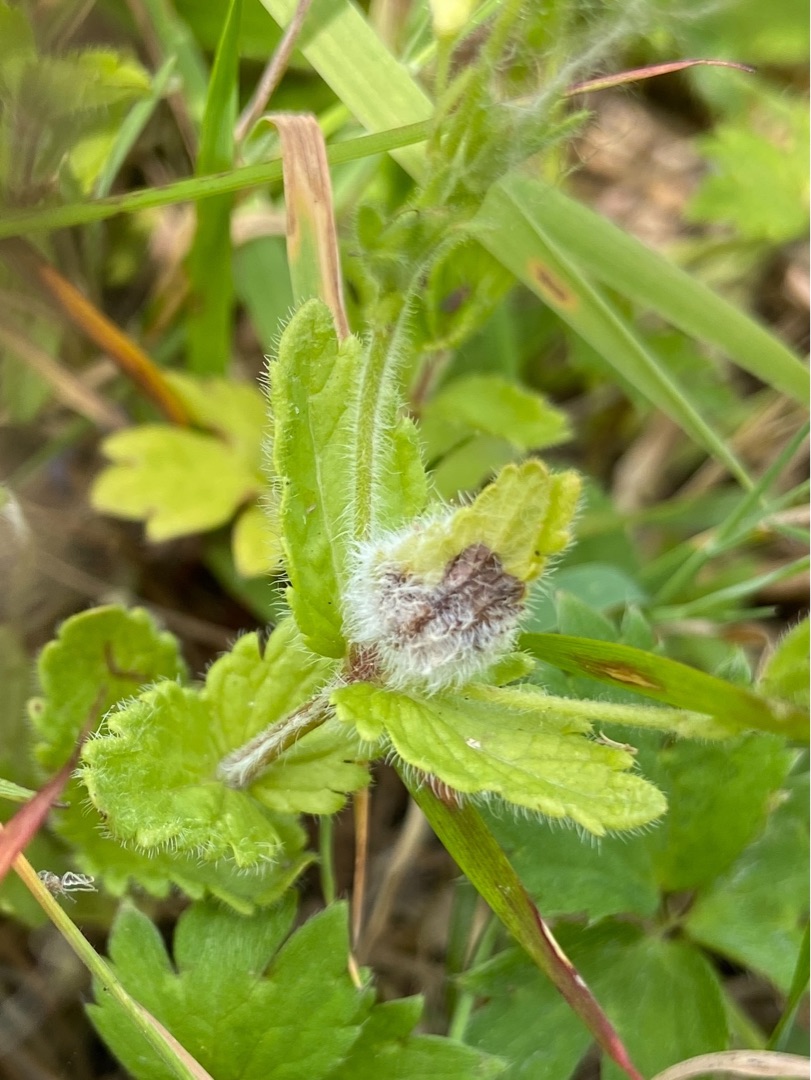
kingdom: Animalia
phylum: Arthropoda
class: Insecta
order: Diptera
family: Cecidomyiidae
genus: Jaapiella
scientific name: Jaapiella veronicae
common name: Ærenprisgalmyg
